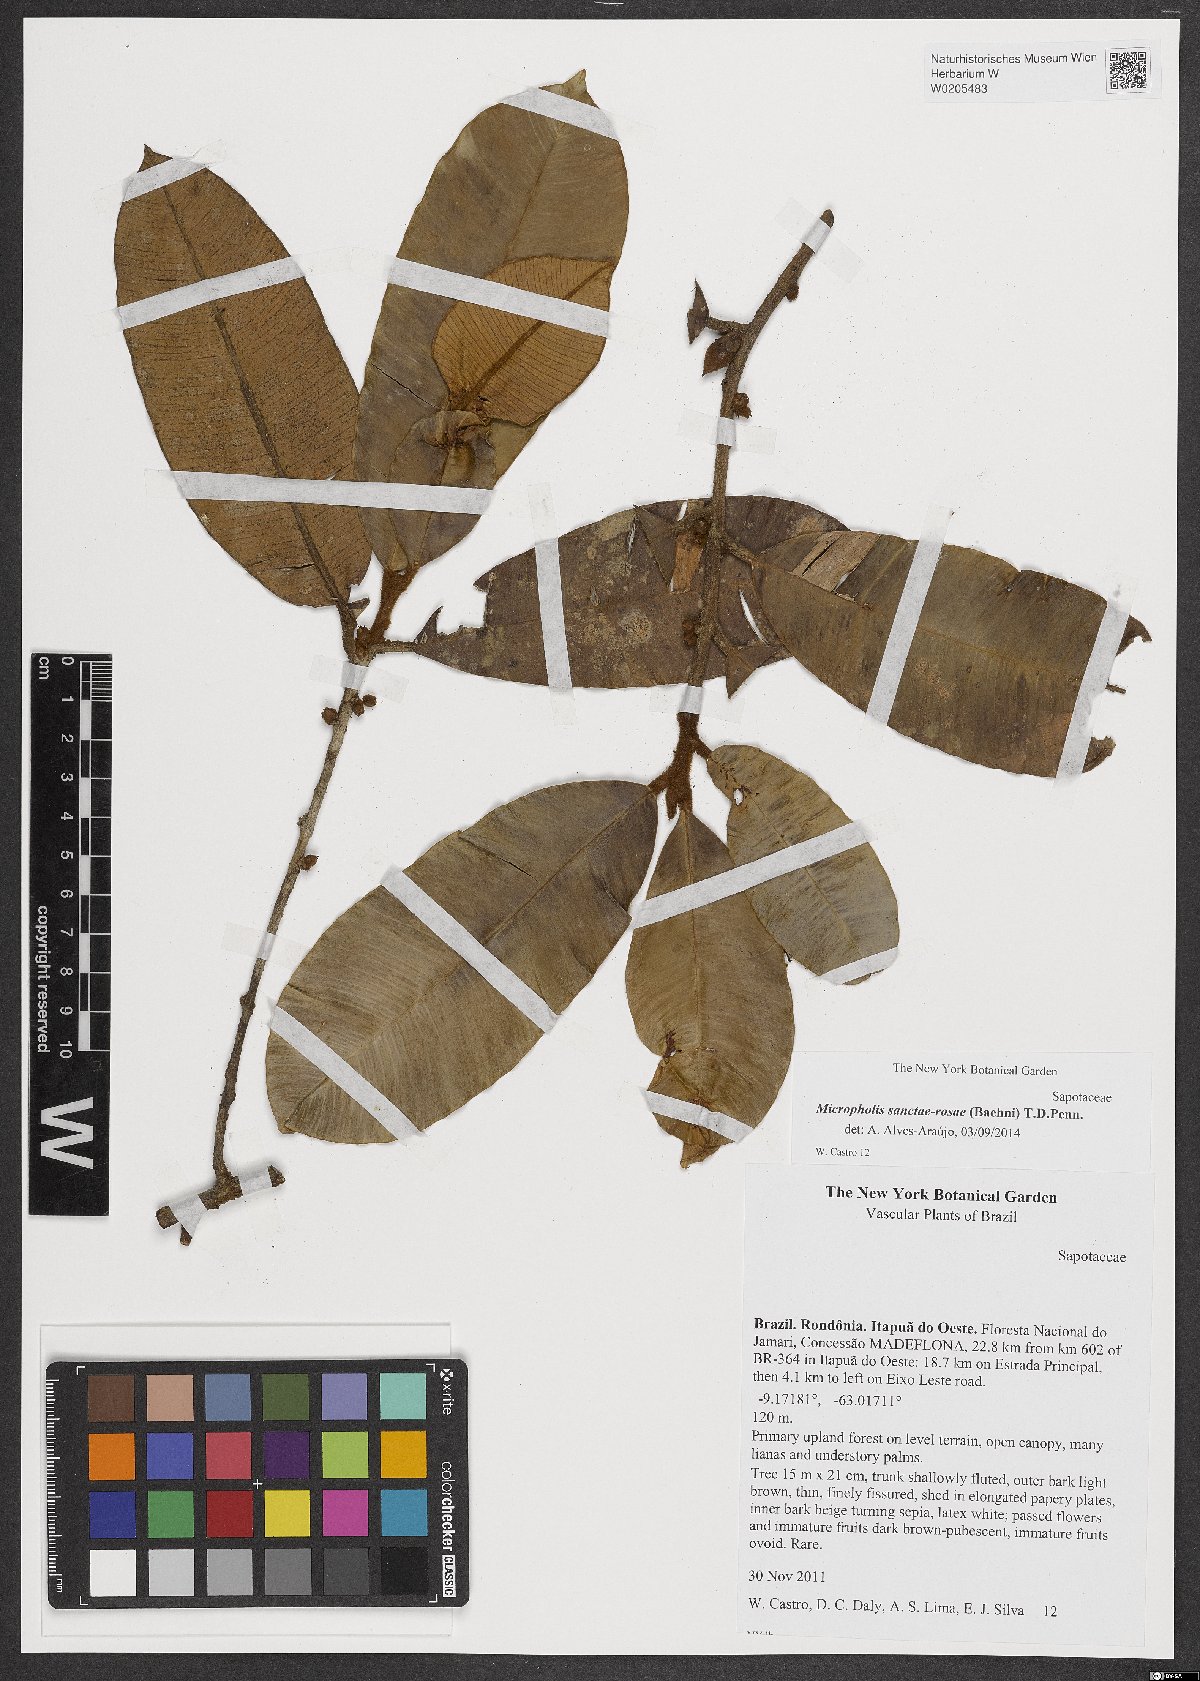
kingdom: Plantae
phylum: Tracheophyta
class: Magnoliopsida
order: Ericales
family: Sapotaceae
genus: Micropholis
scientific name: Micropholis sanctae-rosae
